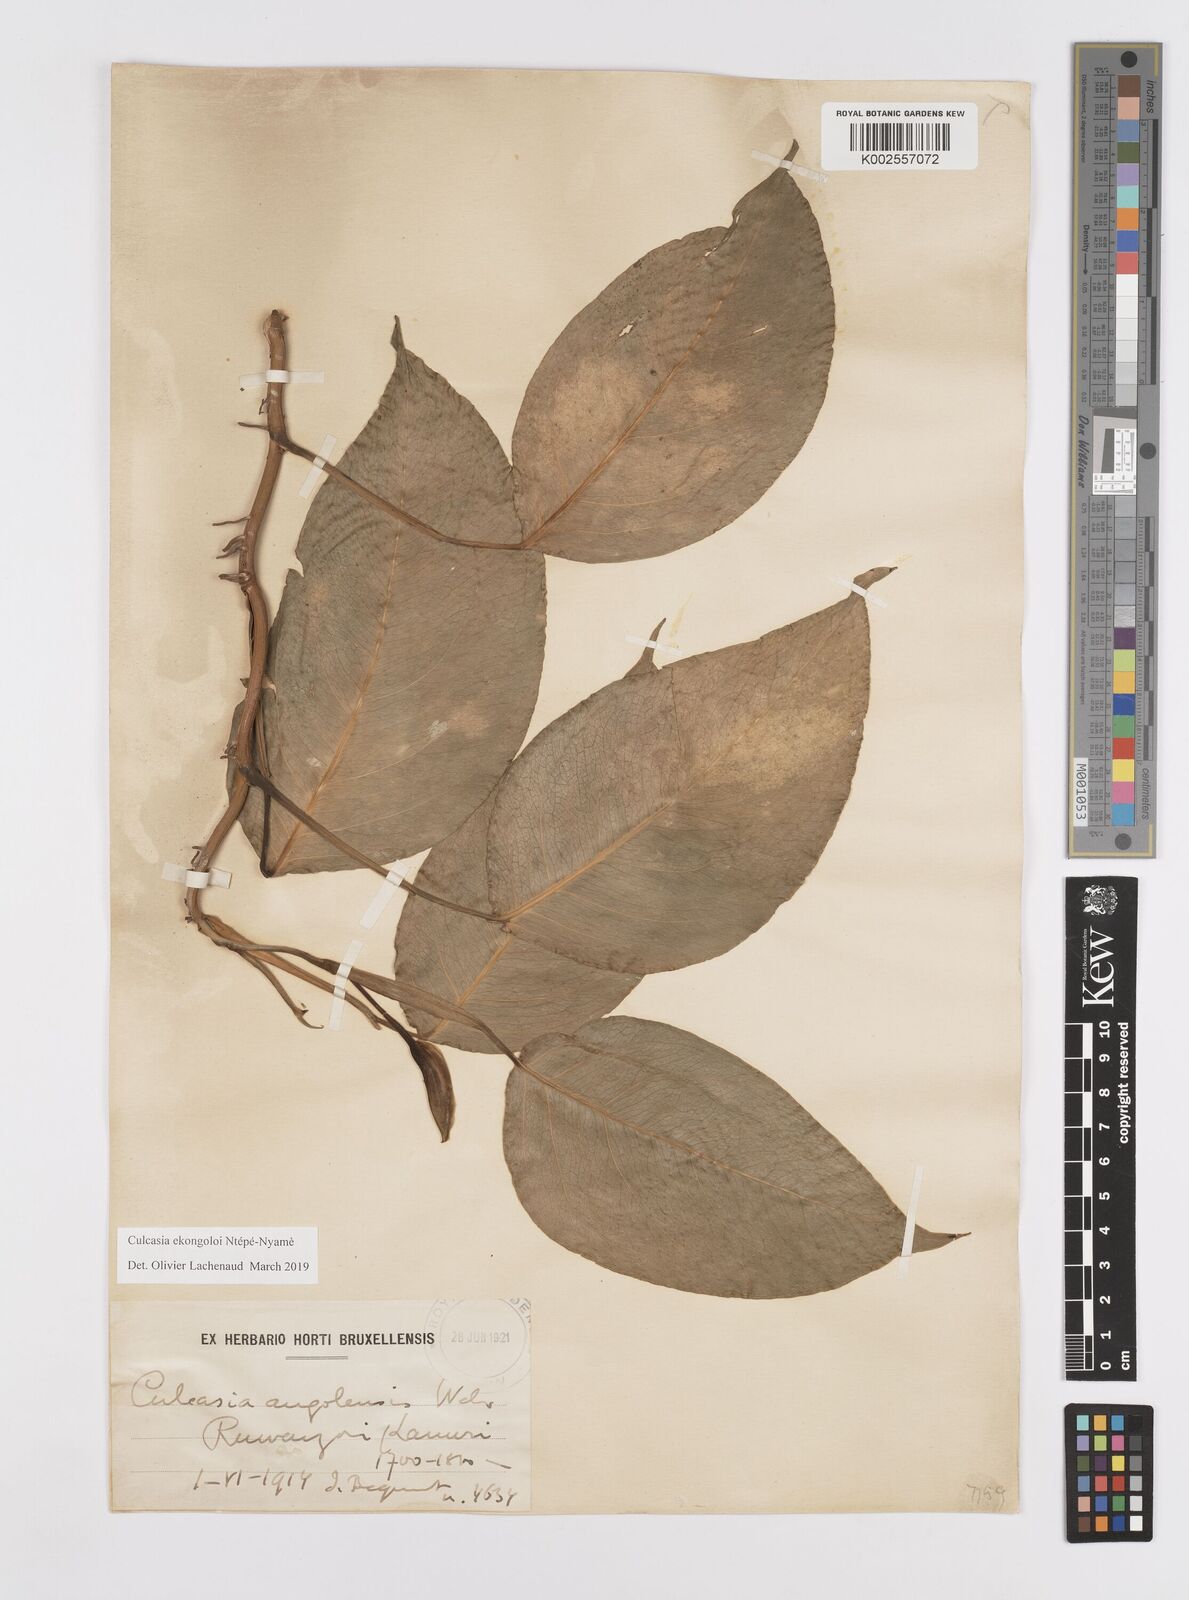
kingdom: Plantae
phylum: Tracheophyta
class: Liliopsida
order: Alismatales
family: Araceae
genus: Culcasia
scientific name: Culcasia ekongoloi
